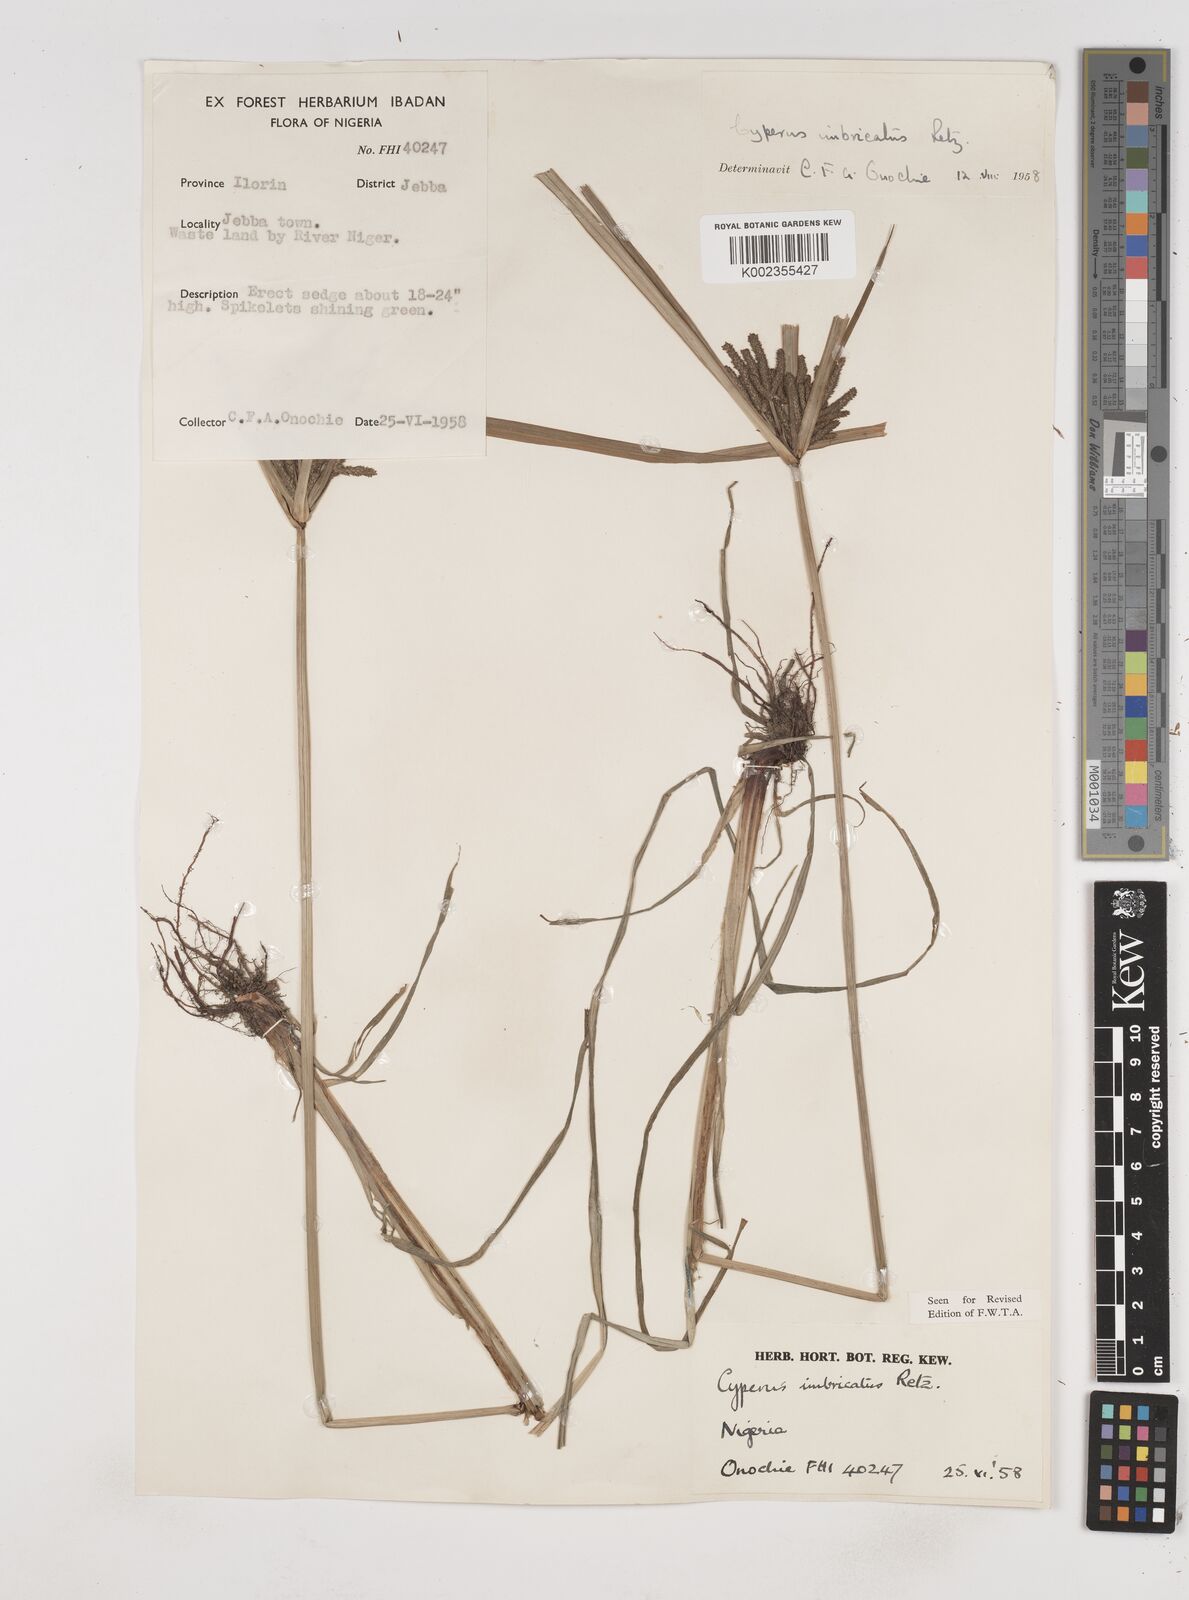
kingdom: Plantae
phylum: Tracheophyta
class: Liliopsida
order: Poales
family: Cyperaceae
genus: Cyperus
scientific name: Cyperus imbricatus
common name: Shingle flatsedge
